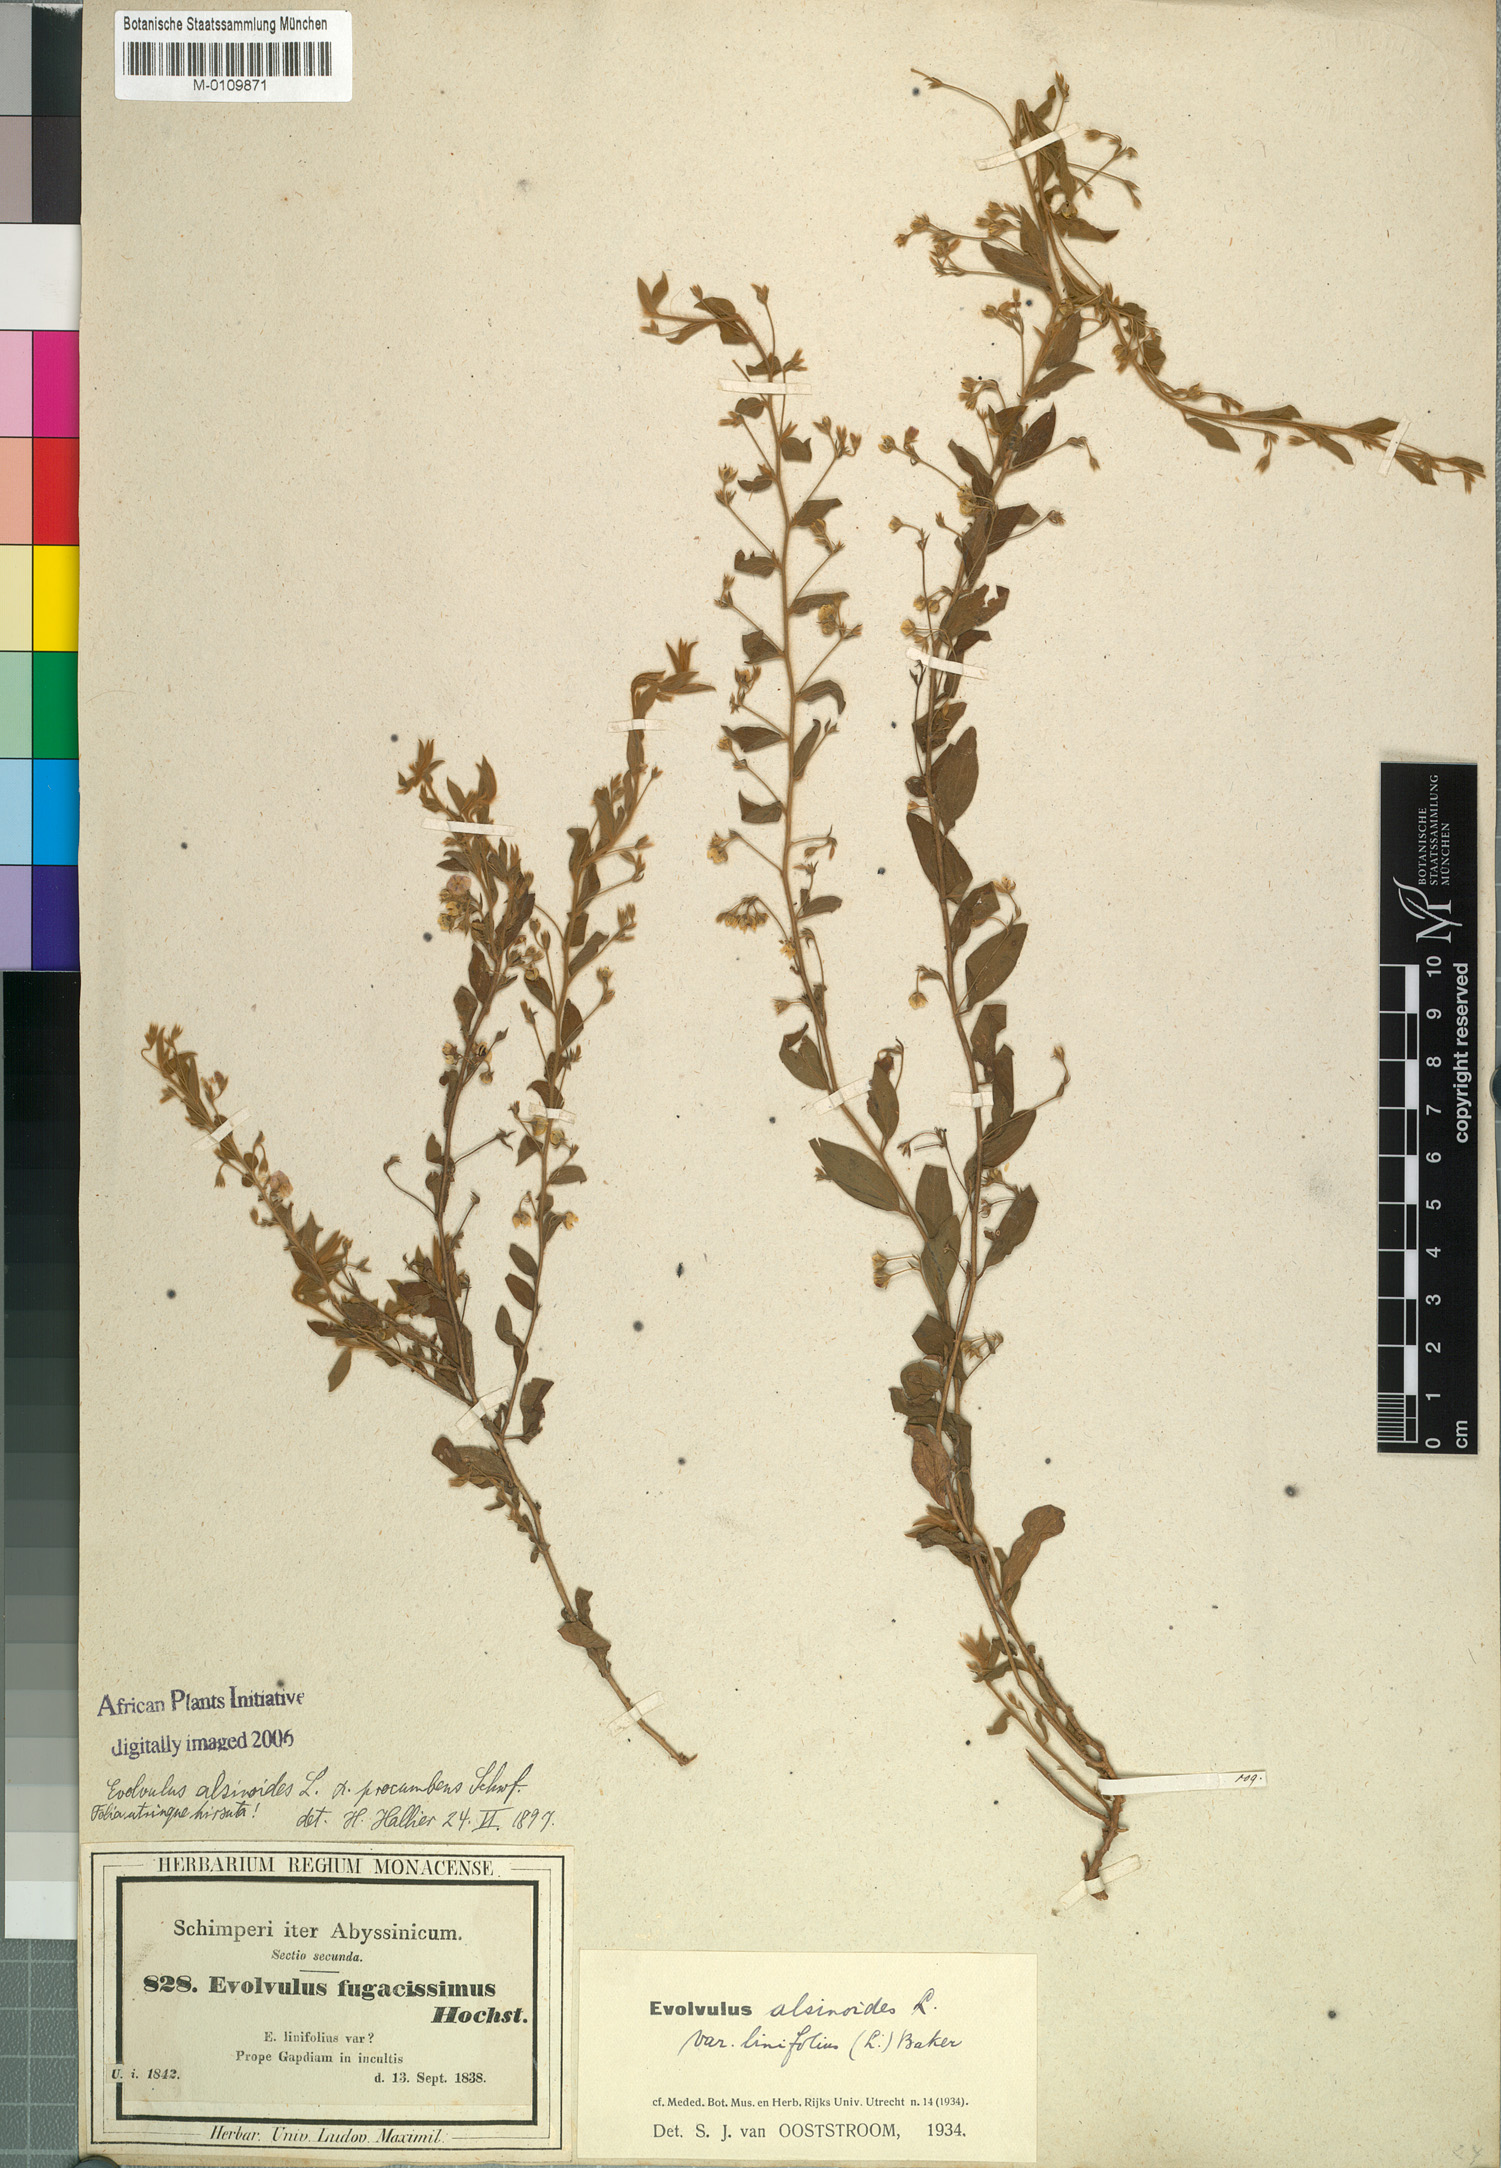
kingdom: Plantae
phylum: Tracheophyta
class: Magnoliopsida
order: Solanales
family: Convolvulaceae
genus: Evolvulus
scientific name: Evolvulus alsinoides
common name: Slender dwarf morning-glory
